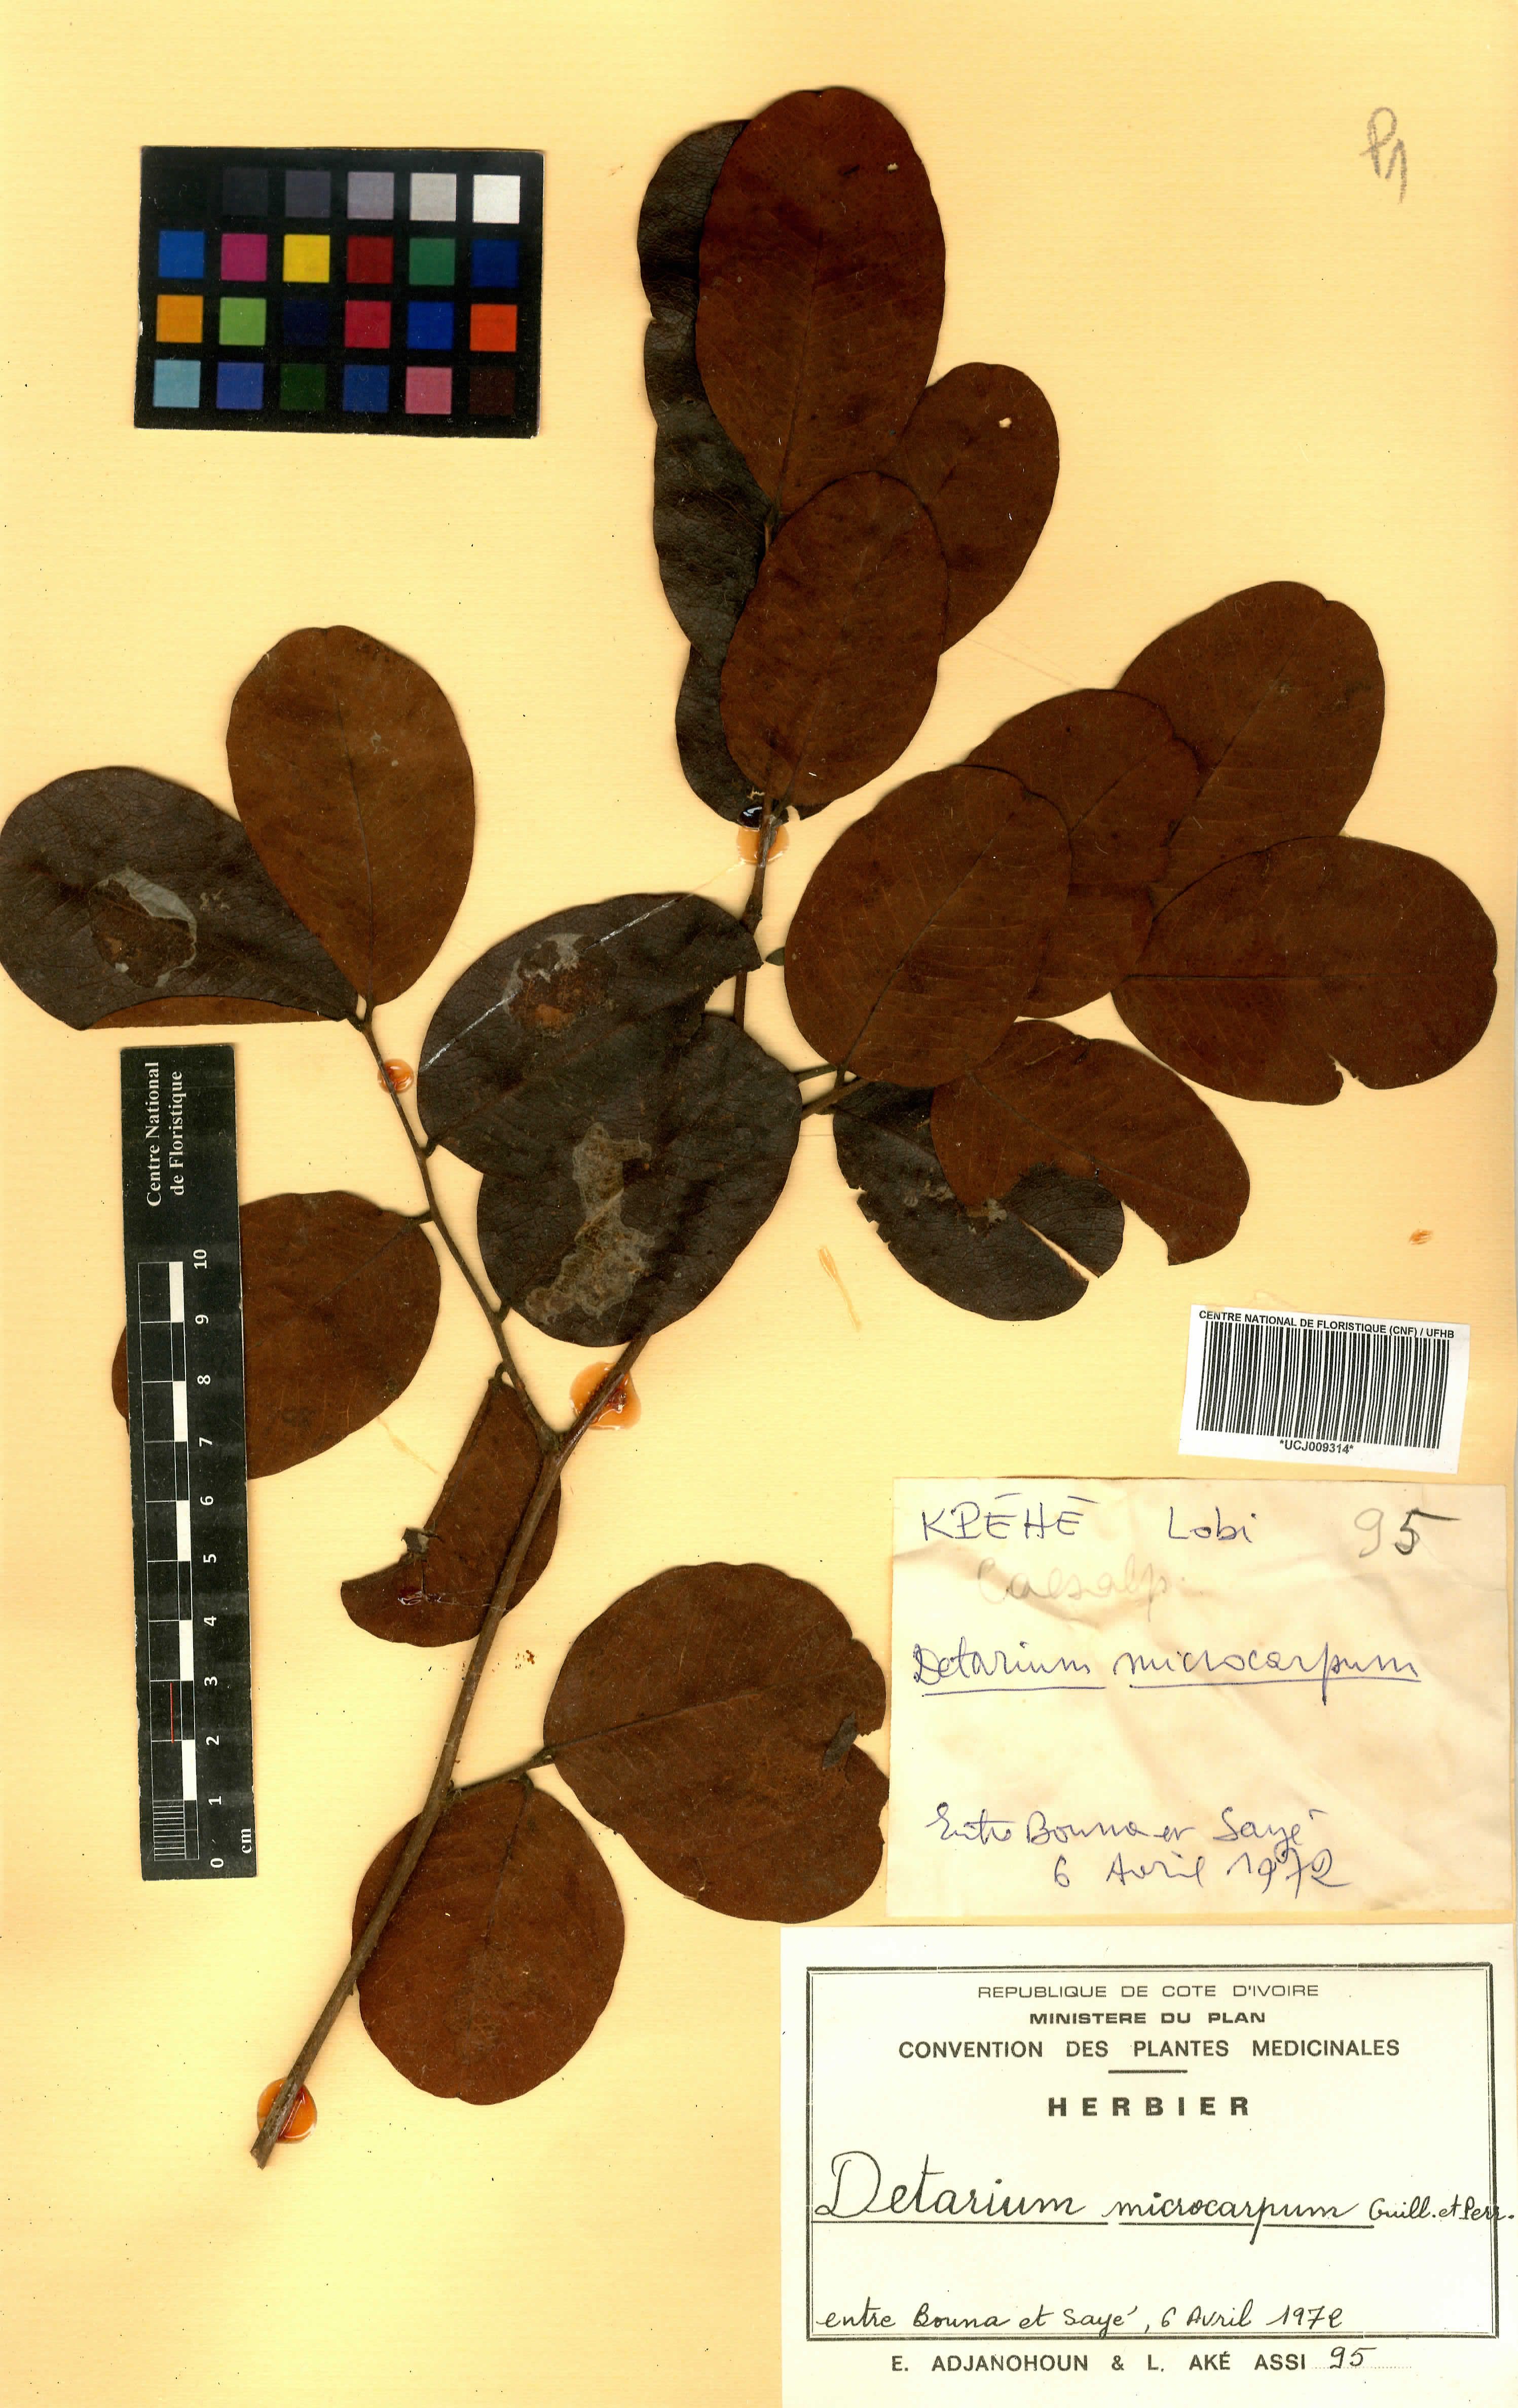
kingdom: Plantae
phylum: Tracheophyta
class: Magnoliopsida
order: Fabales
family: Fabaceae
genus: Detarium
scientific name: Detarium microcarpum
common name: Sweet dattock
